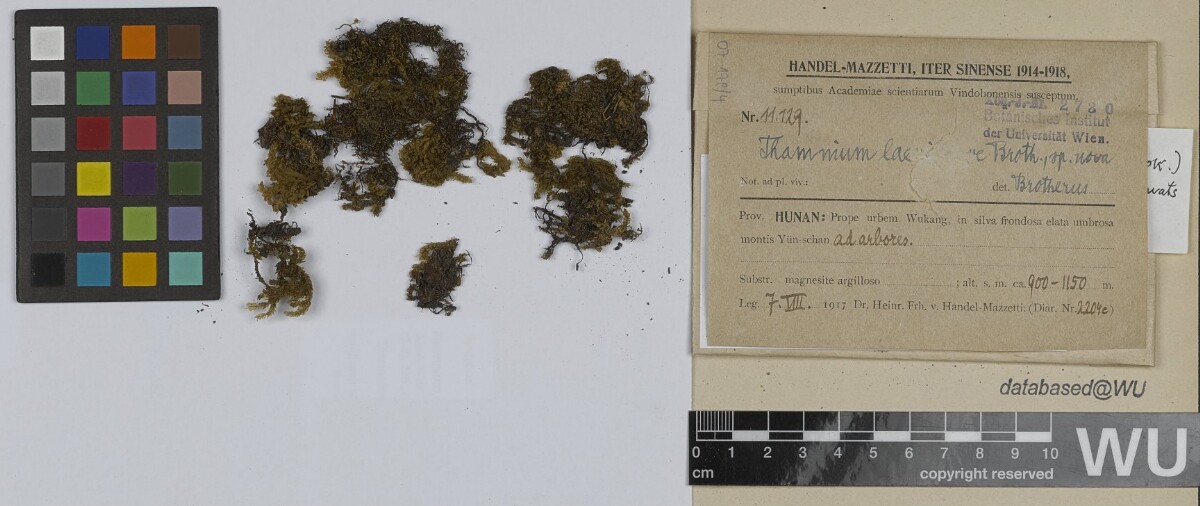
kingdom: Plantae
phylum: Bryophyta
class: Bryopsida
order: Hypnales
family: Neckeraceae
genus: Thamnobryum
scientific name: Thamnobryum neckeroides
